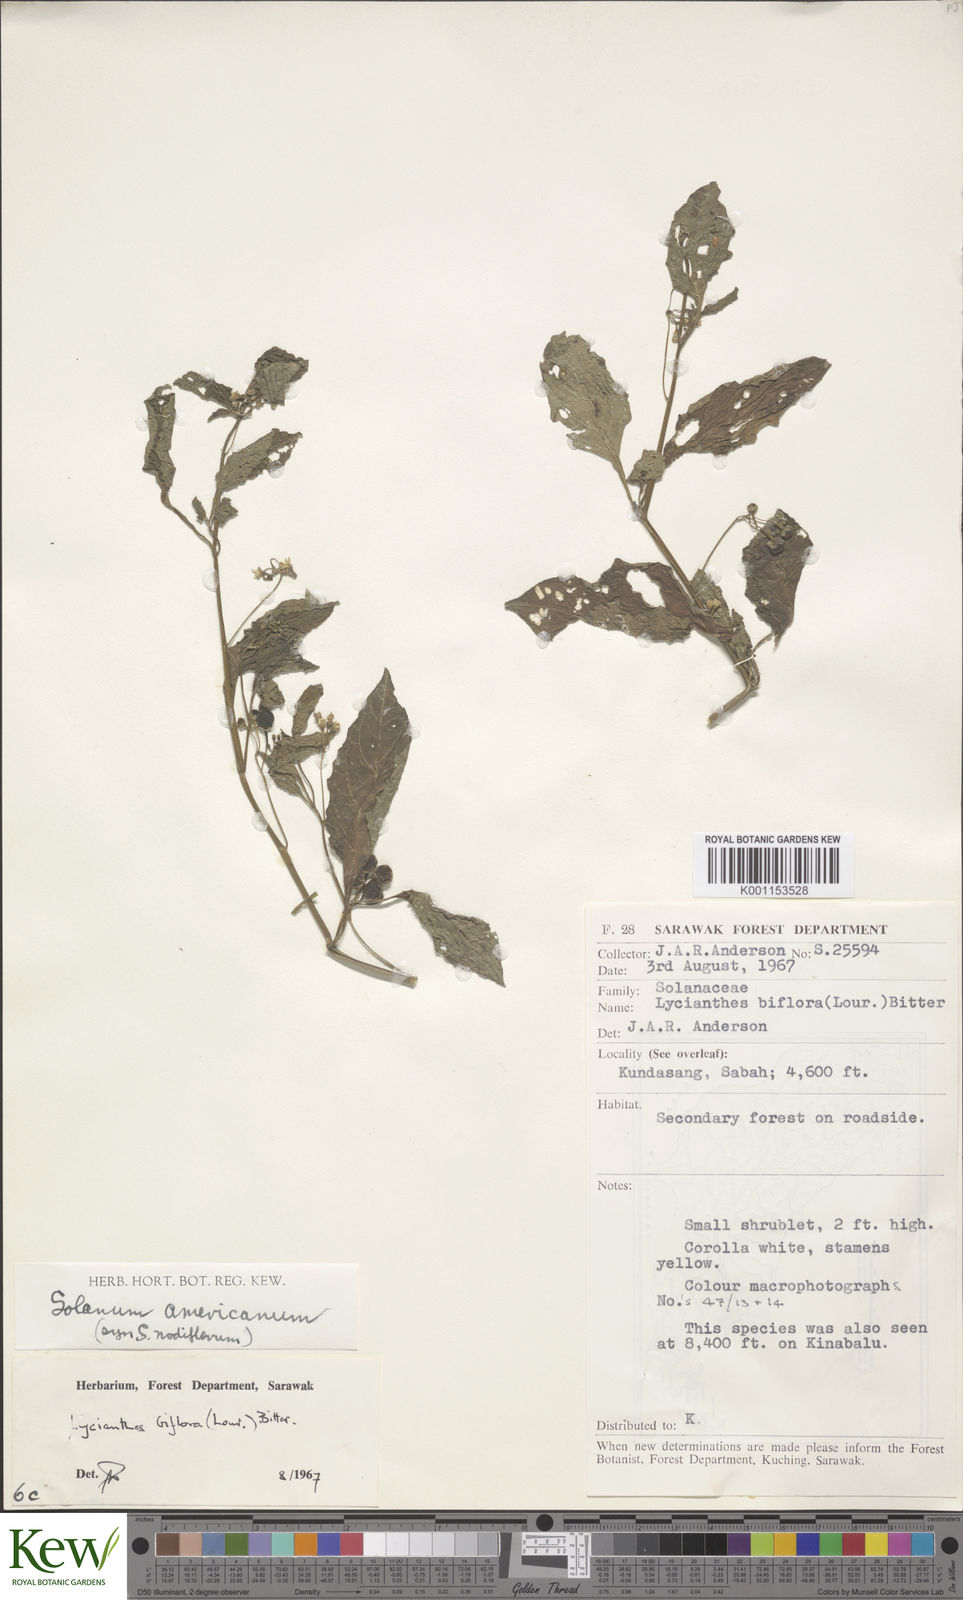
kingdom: Plantae
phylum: Tracheophyta
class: Magnoliopsida
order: Solanales
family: Solanaceae
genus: Solanum
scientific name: Solanum nigrum
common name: Black nightshade
